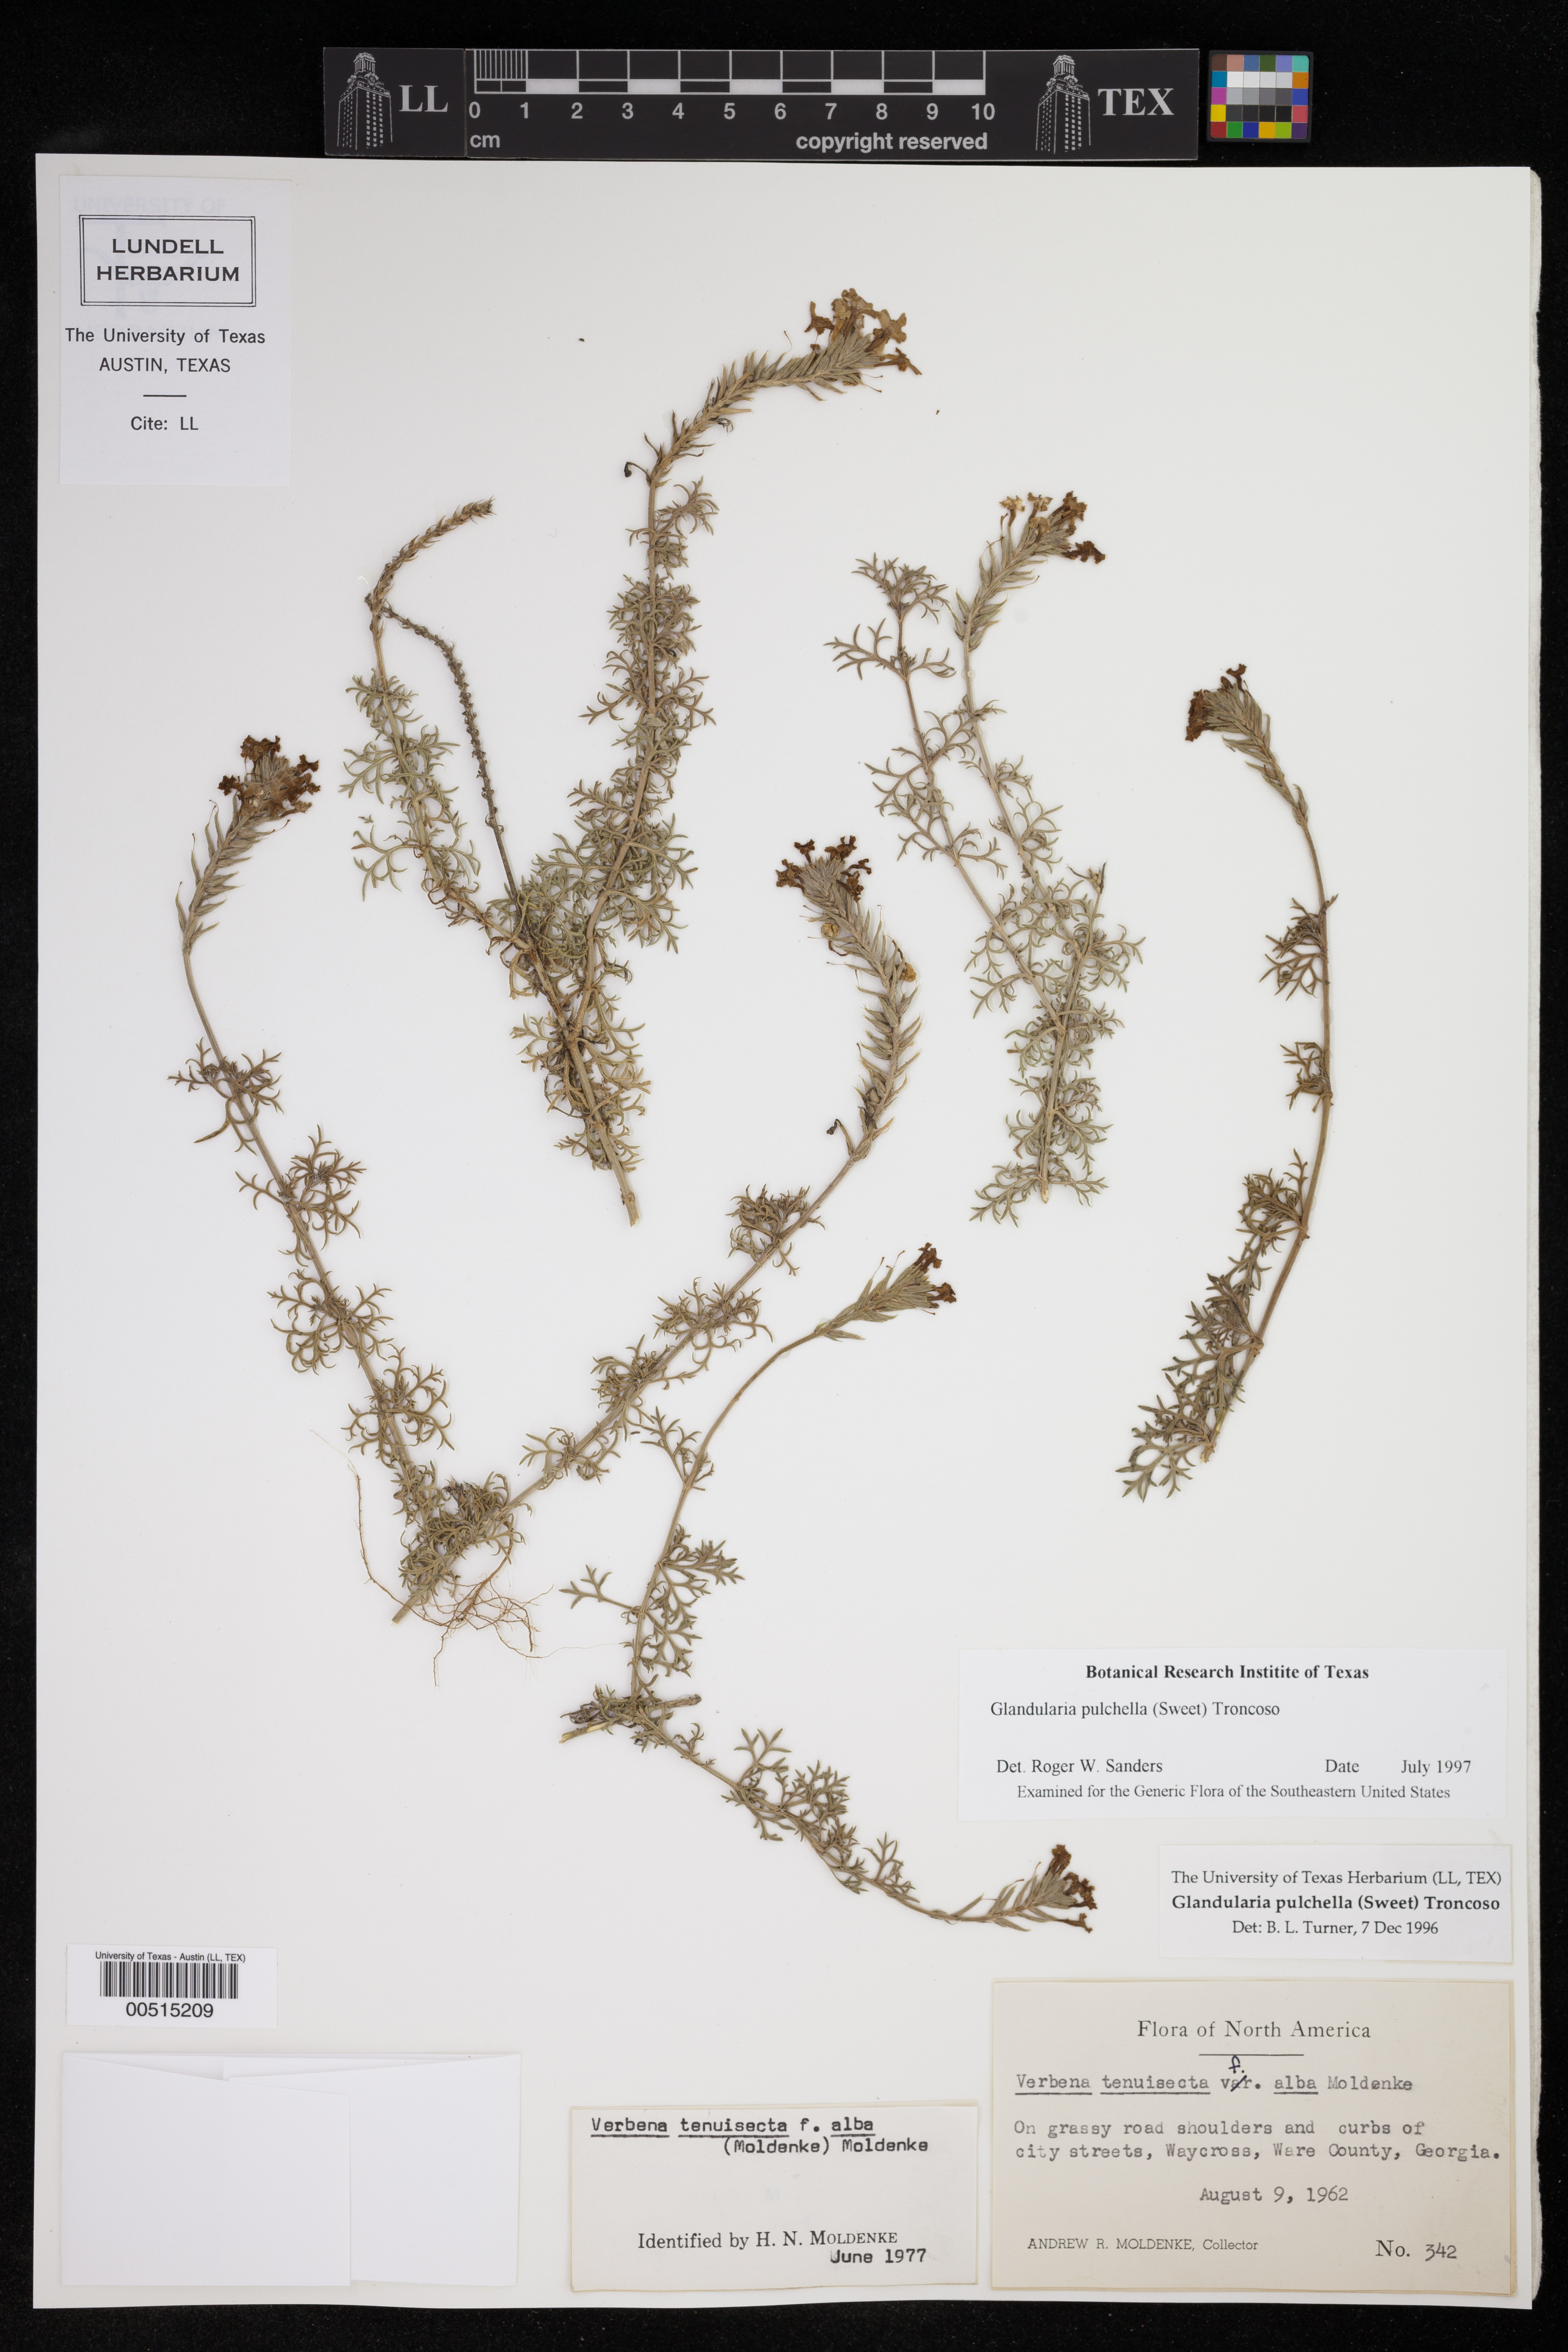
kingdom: Plantae
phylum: Tracheophyta
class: Magnoliopsida
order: Lamiales
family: Verbenaceae
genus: Verbena
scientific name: Verbena tenera
